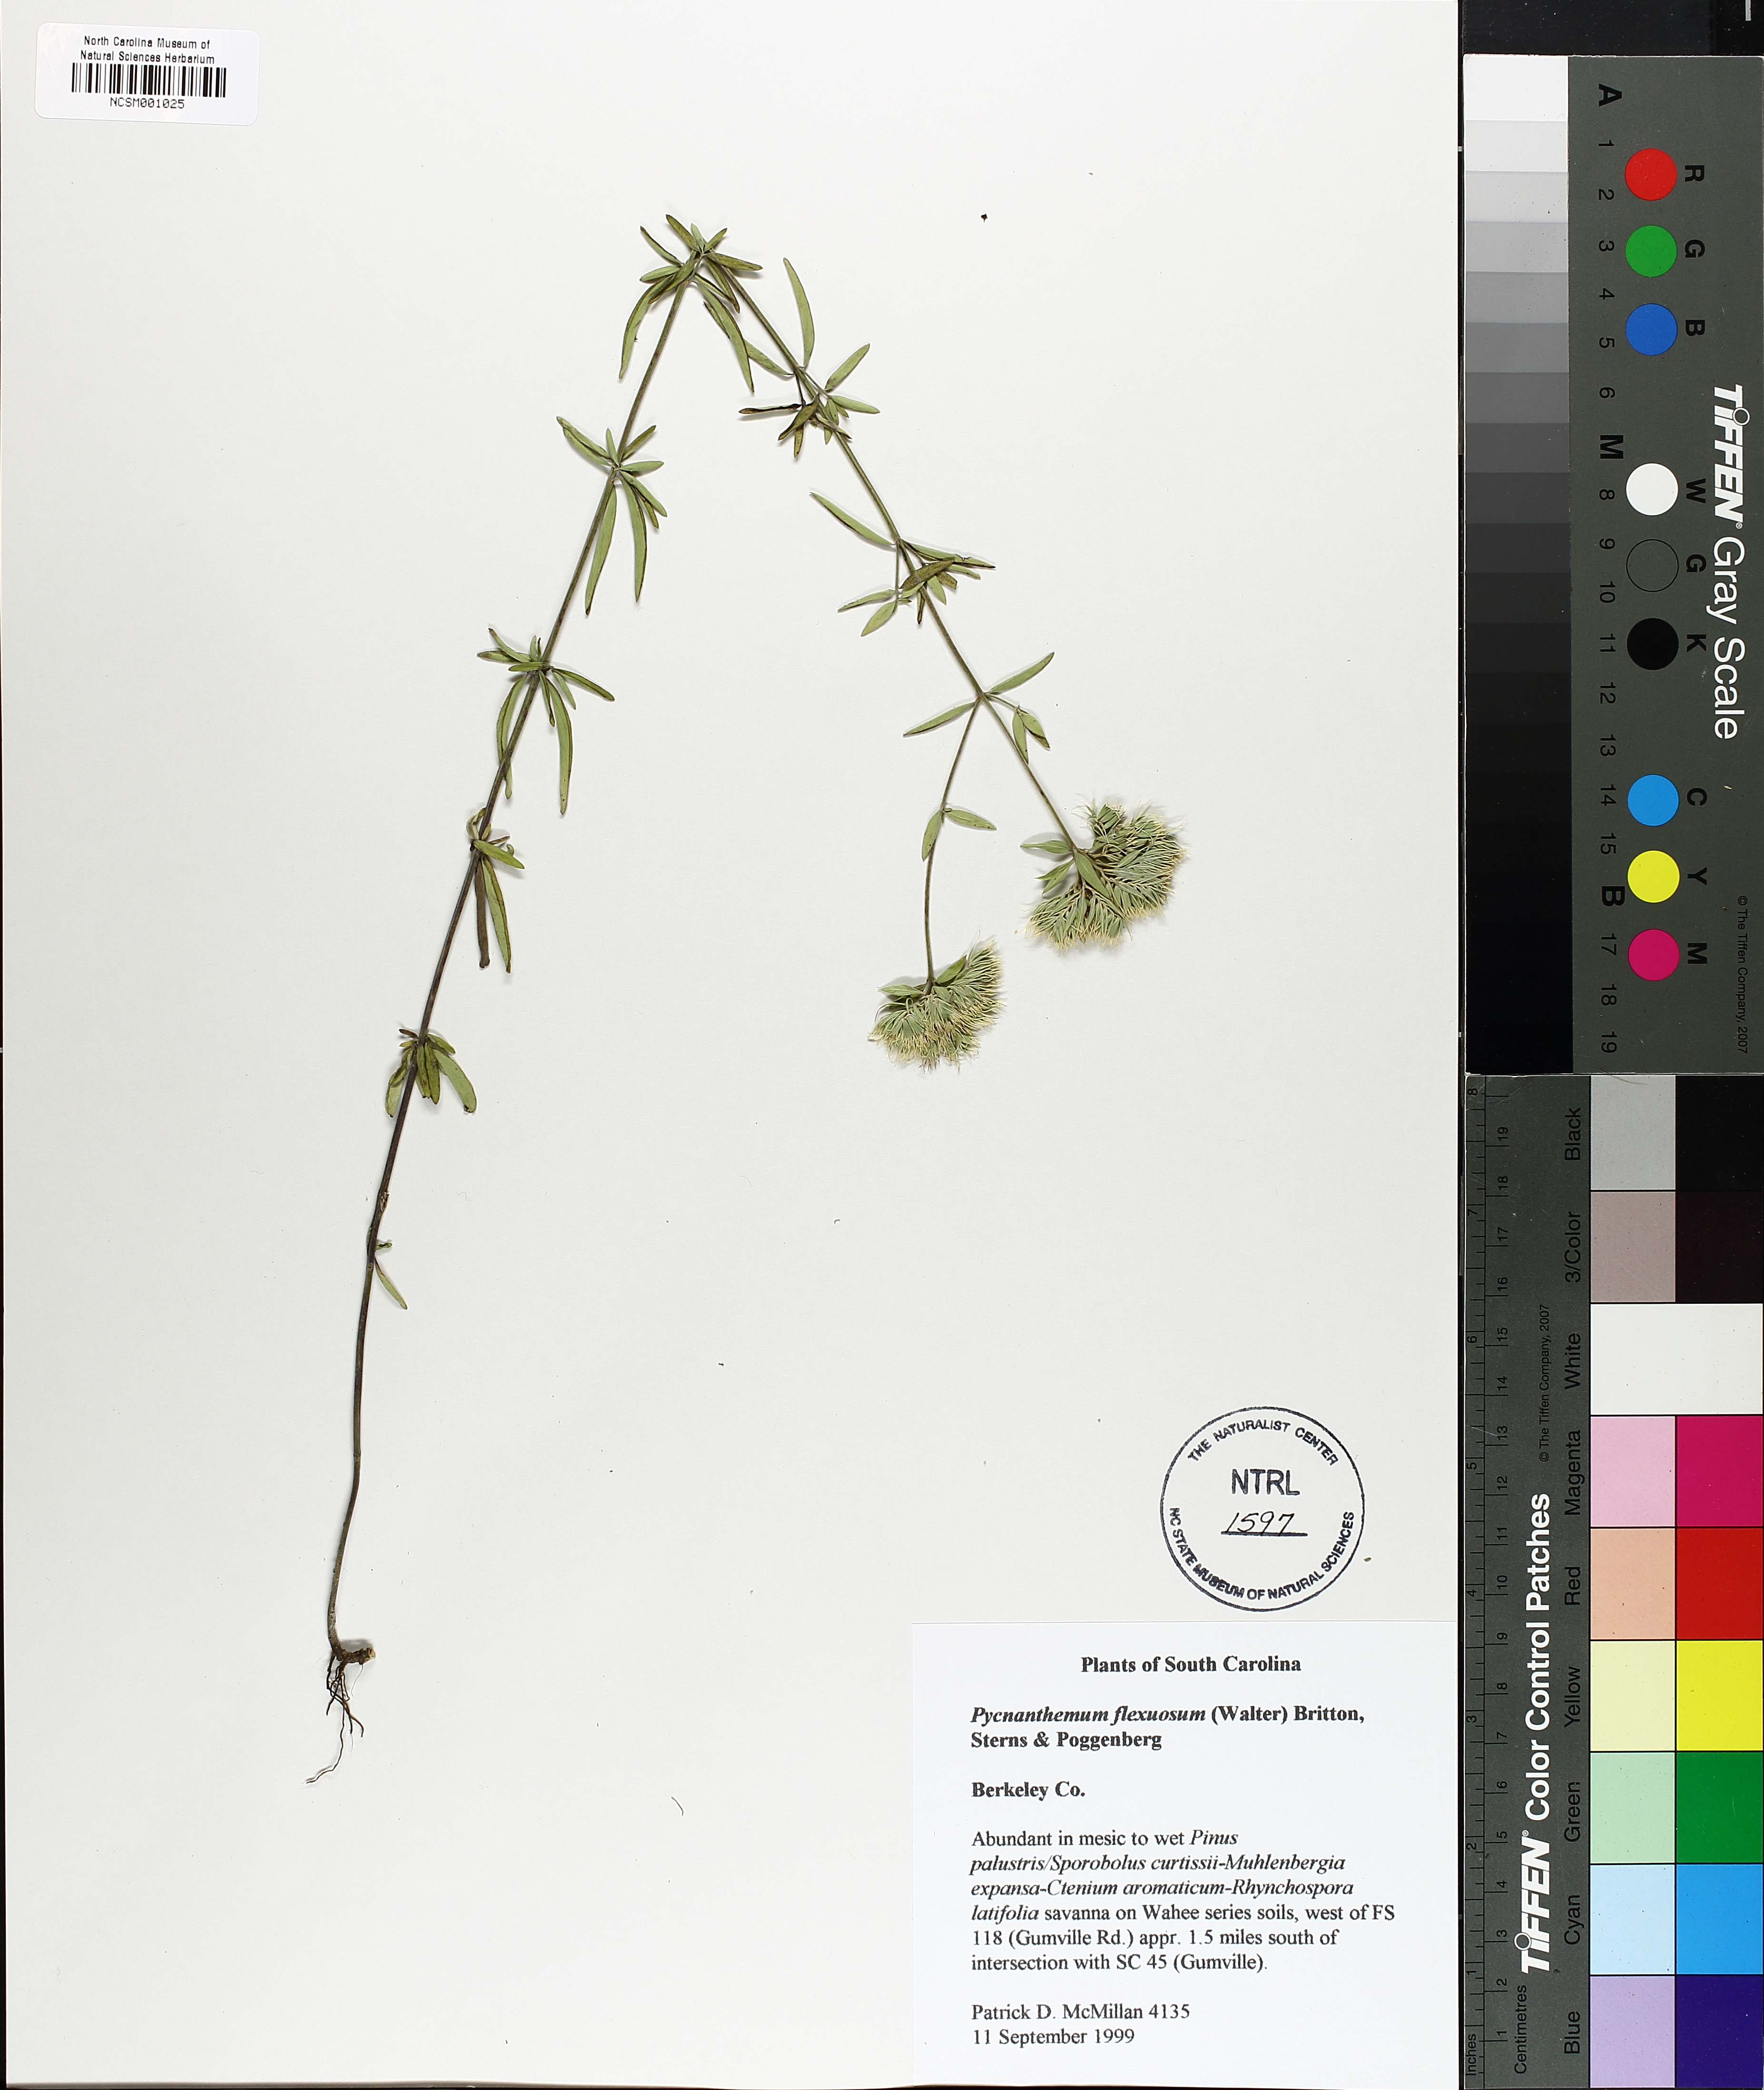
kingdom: Plantae
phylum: Tracheophyta
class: Magnoliopsida
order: Lamiales
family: Lamiaceae
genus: Pycnanthemum
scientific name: Pycnanthemum flexuosum
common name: Appalachian mountain-mint
